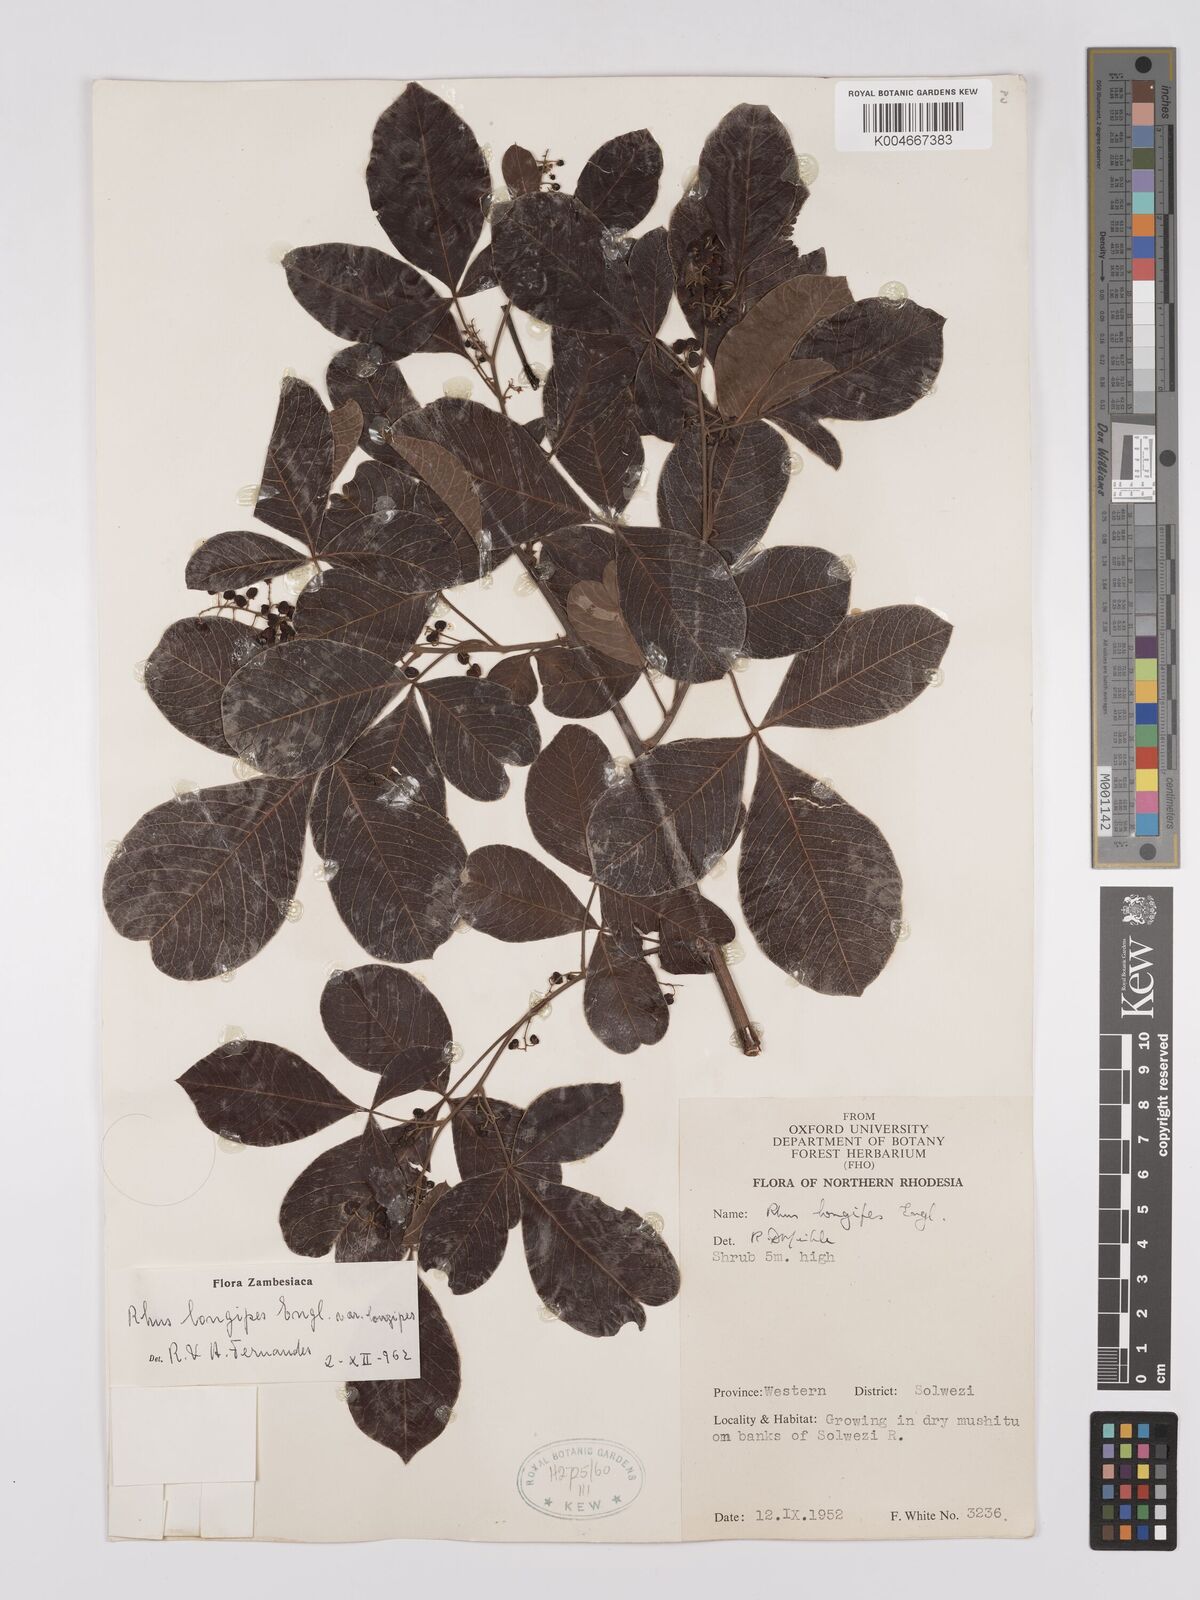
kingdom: Plantae
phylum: Tracheophyta
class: Magnoliopsida
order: Sapindales
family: Anacardiaceae
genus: Searsia
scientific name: Searsia longipes
